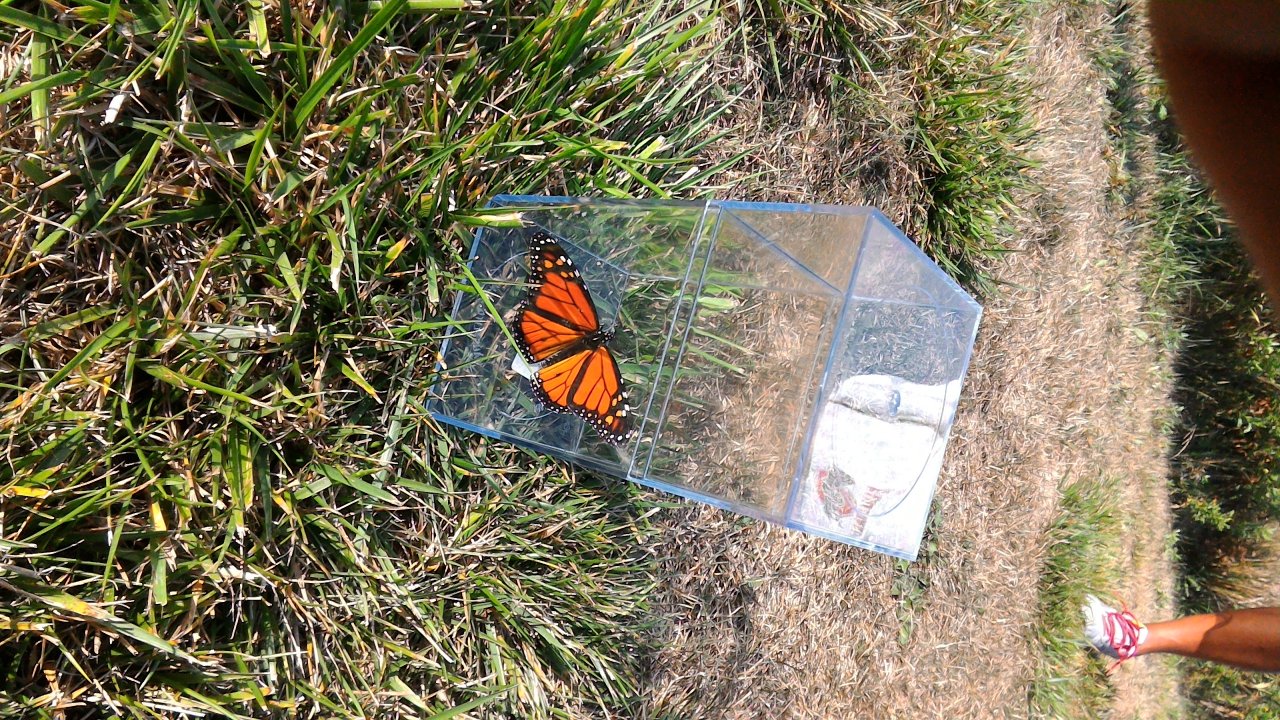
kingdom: Animalia
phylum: Arthropoda
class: Insecta
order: Lepidoptera
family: Nymphalidae
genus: Danaus
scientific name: Danaus plexippus
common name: Monarch
